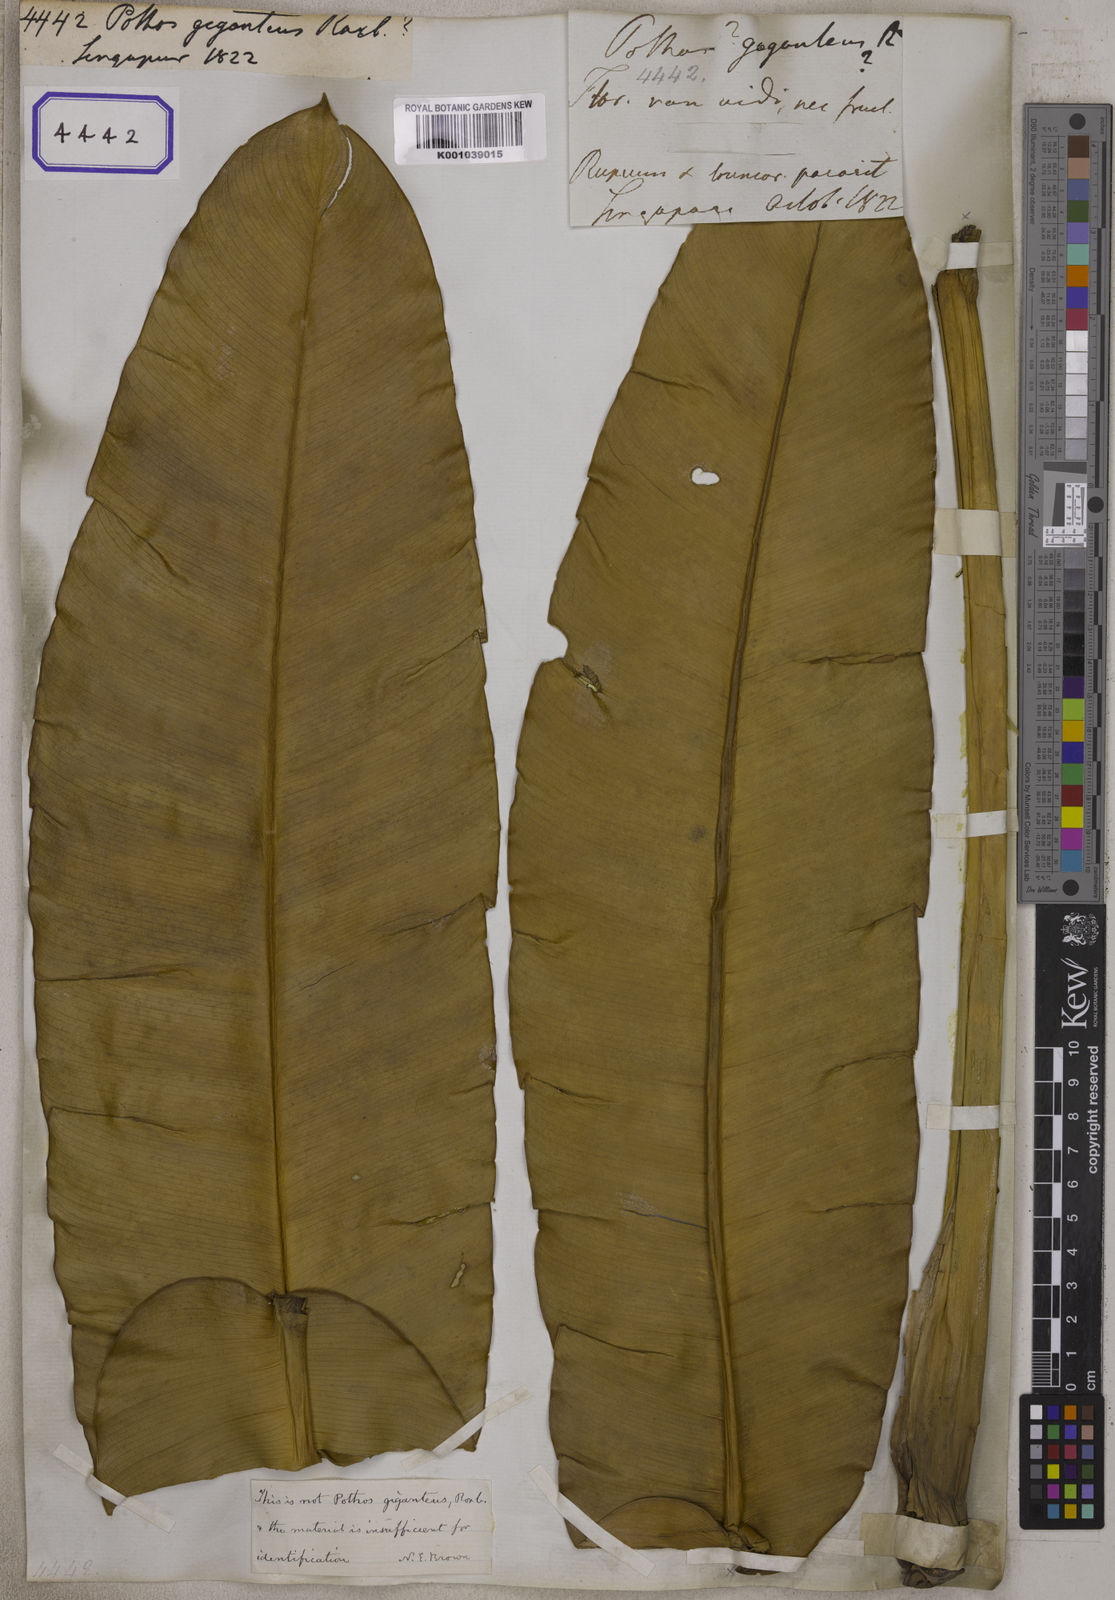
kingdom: Plantae
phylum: Tracheophyta
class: Liliopsida
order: Alismatales
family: Araceae
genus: Epipremnum
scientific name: Epipremnum giganteum
